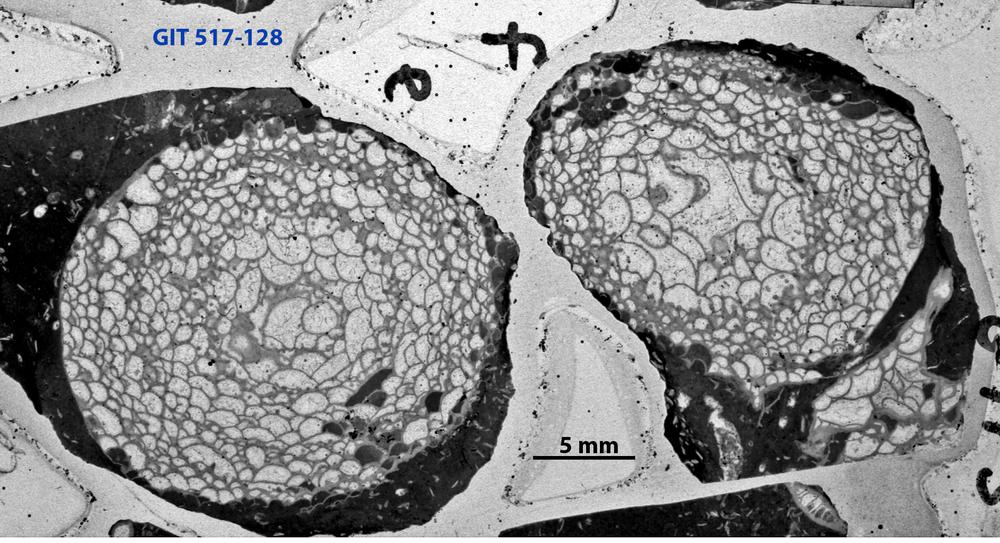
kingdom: Animalia
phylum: Cnidaria
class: Anthozoa
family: Cyathophyllidae
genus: Cystiphyllum
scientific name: Cystiphyllum visbyense
